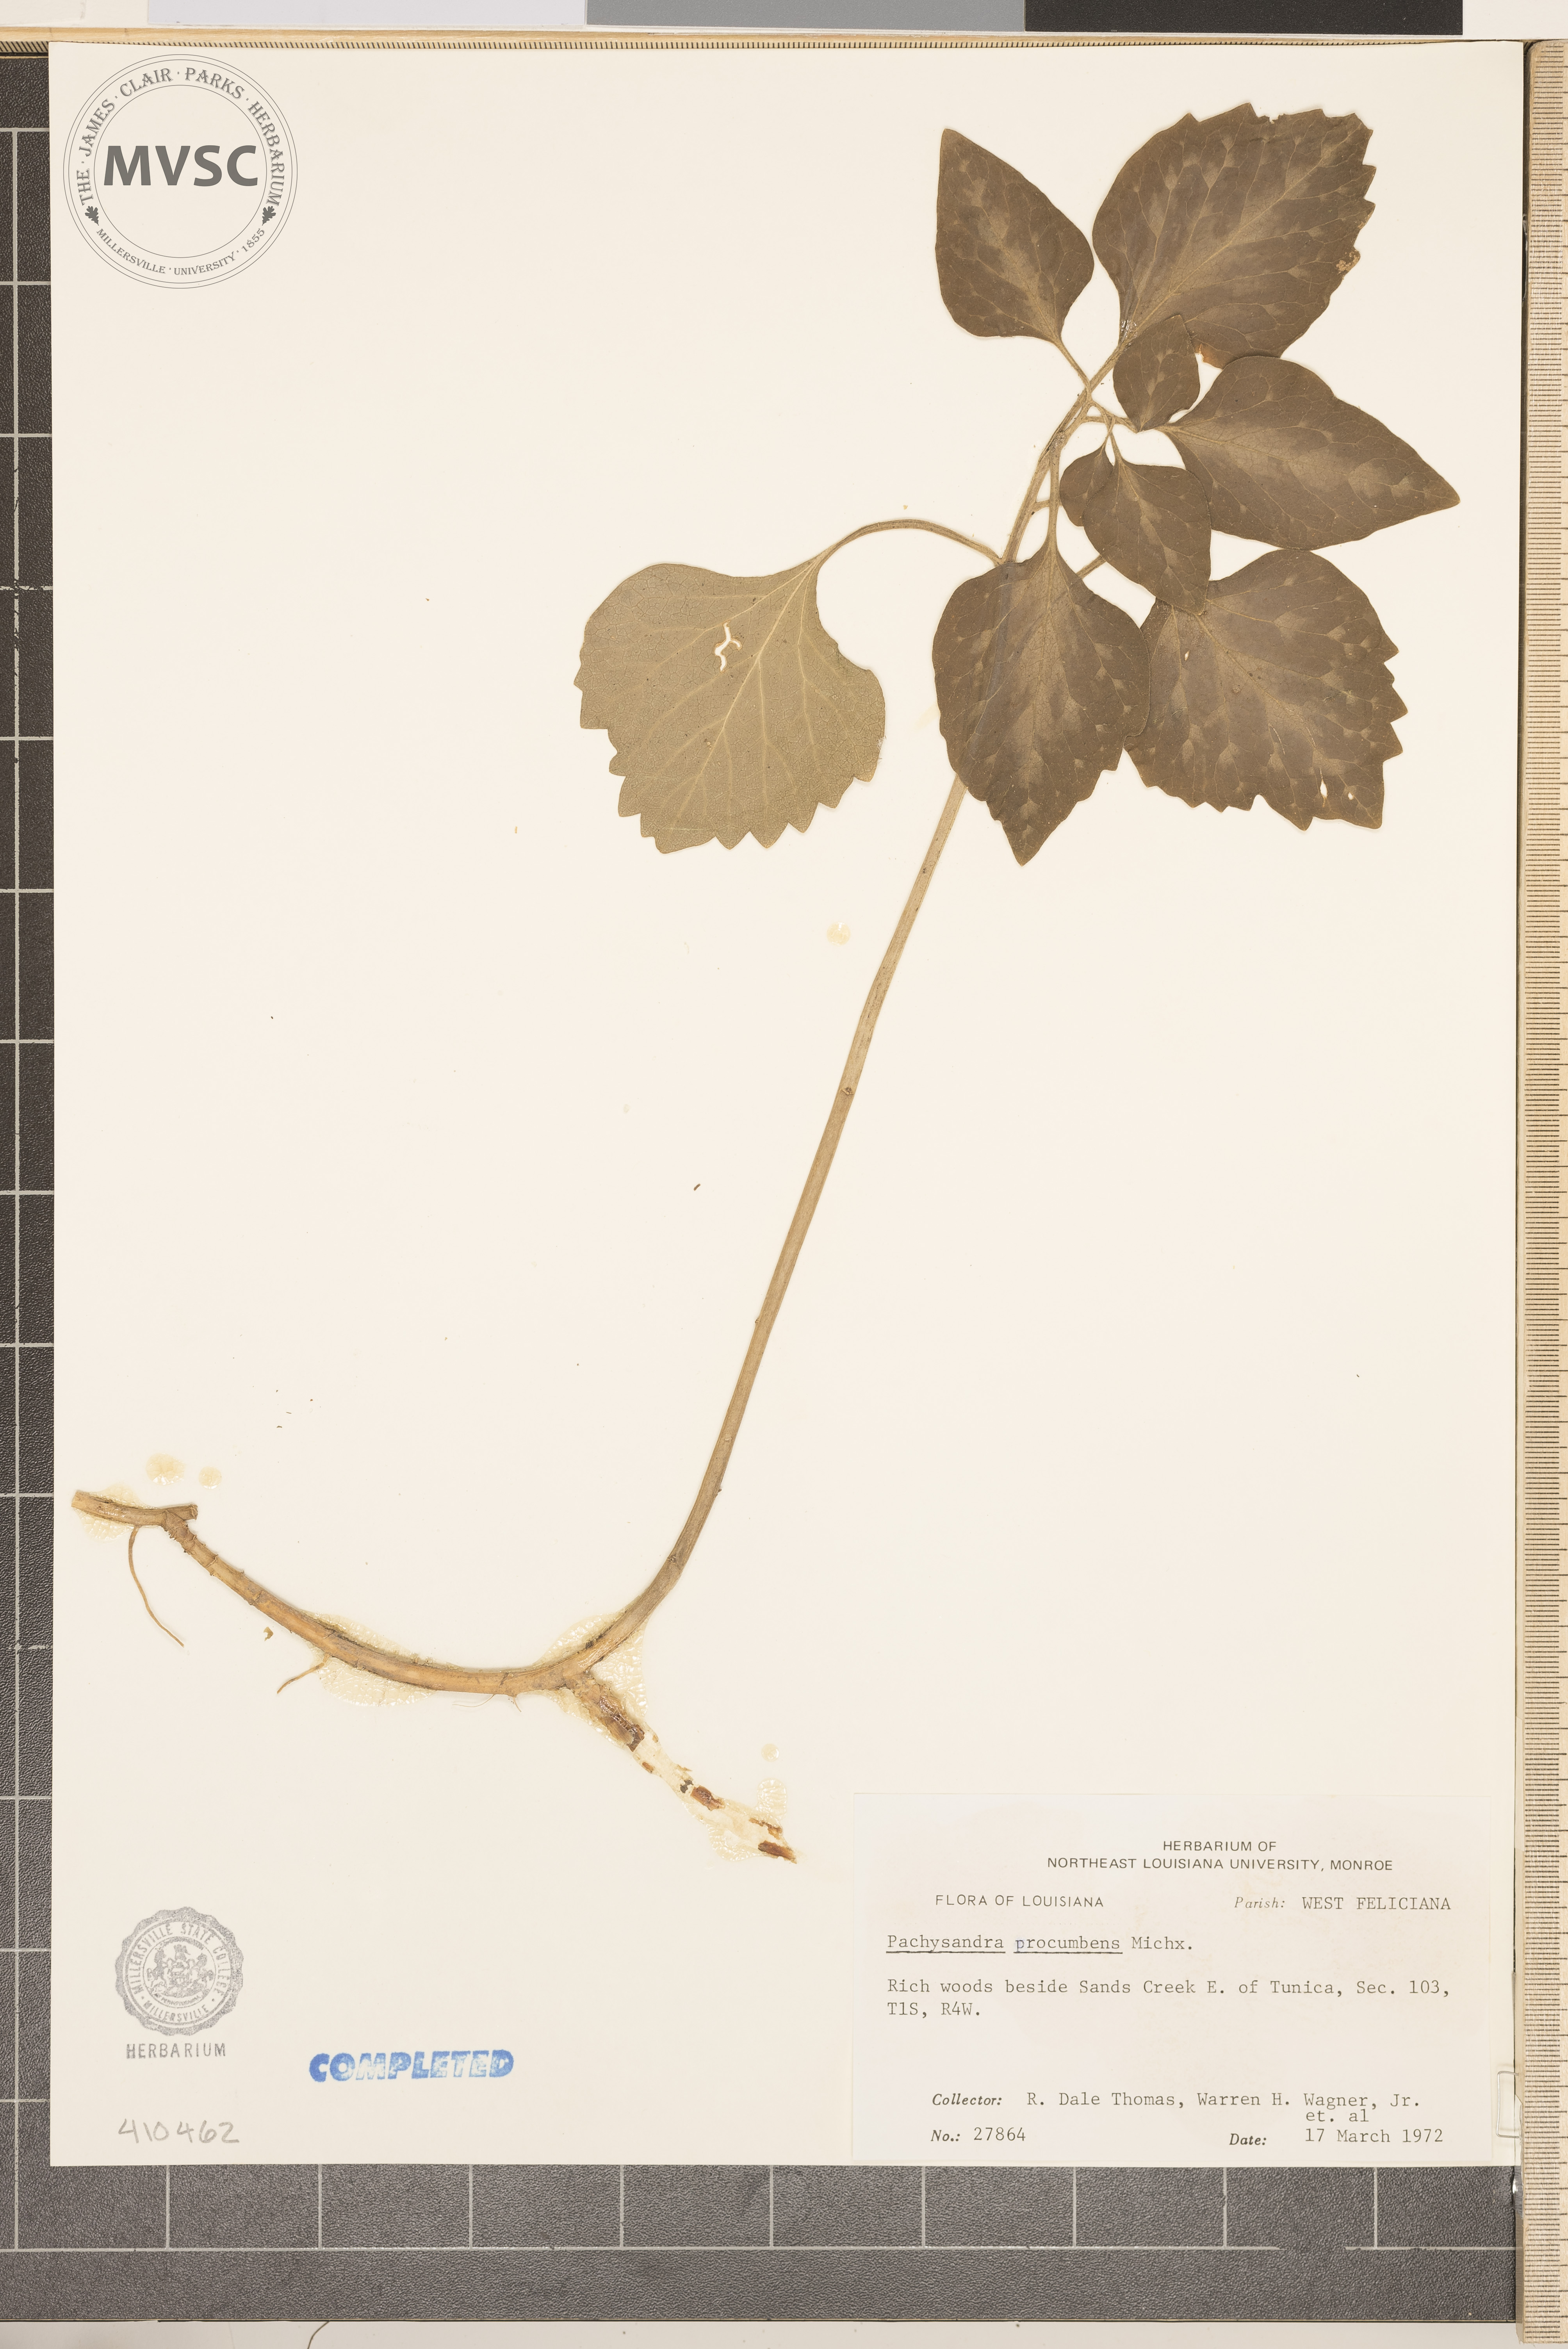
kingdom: Plantae
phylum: Tracheophyta
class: Magnoliopsida
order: Buxales
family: Buxaceae
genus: Pachysandra
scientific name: Pachysandra procumbens
